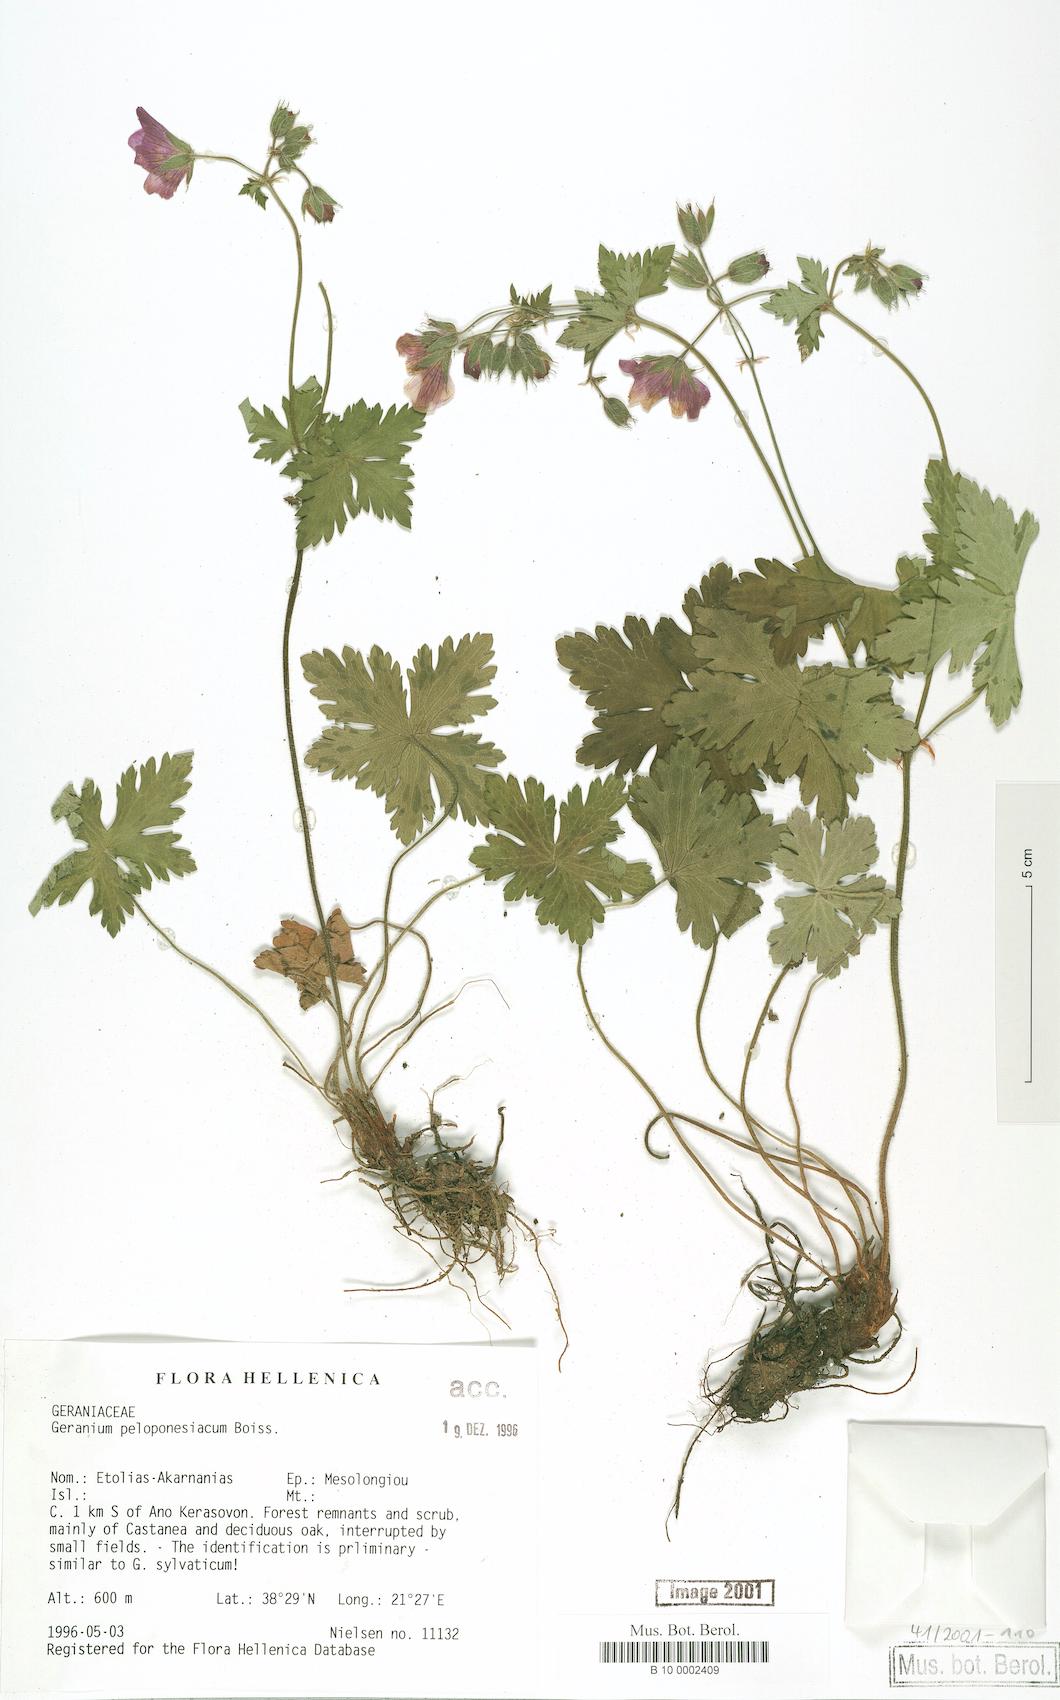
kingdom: Plantae
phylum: Tracheophyta
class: Magnoliopsida
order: Geraniales
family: Geraniaceae
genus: Geranium
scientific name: Geranium peloponnesiacum
